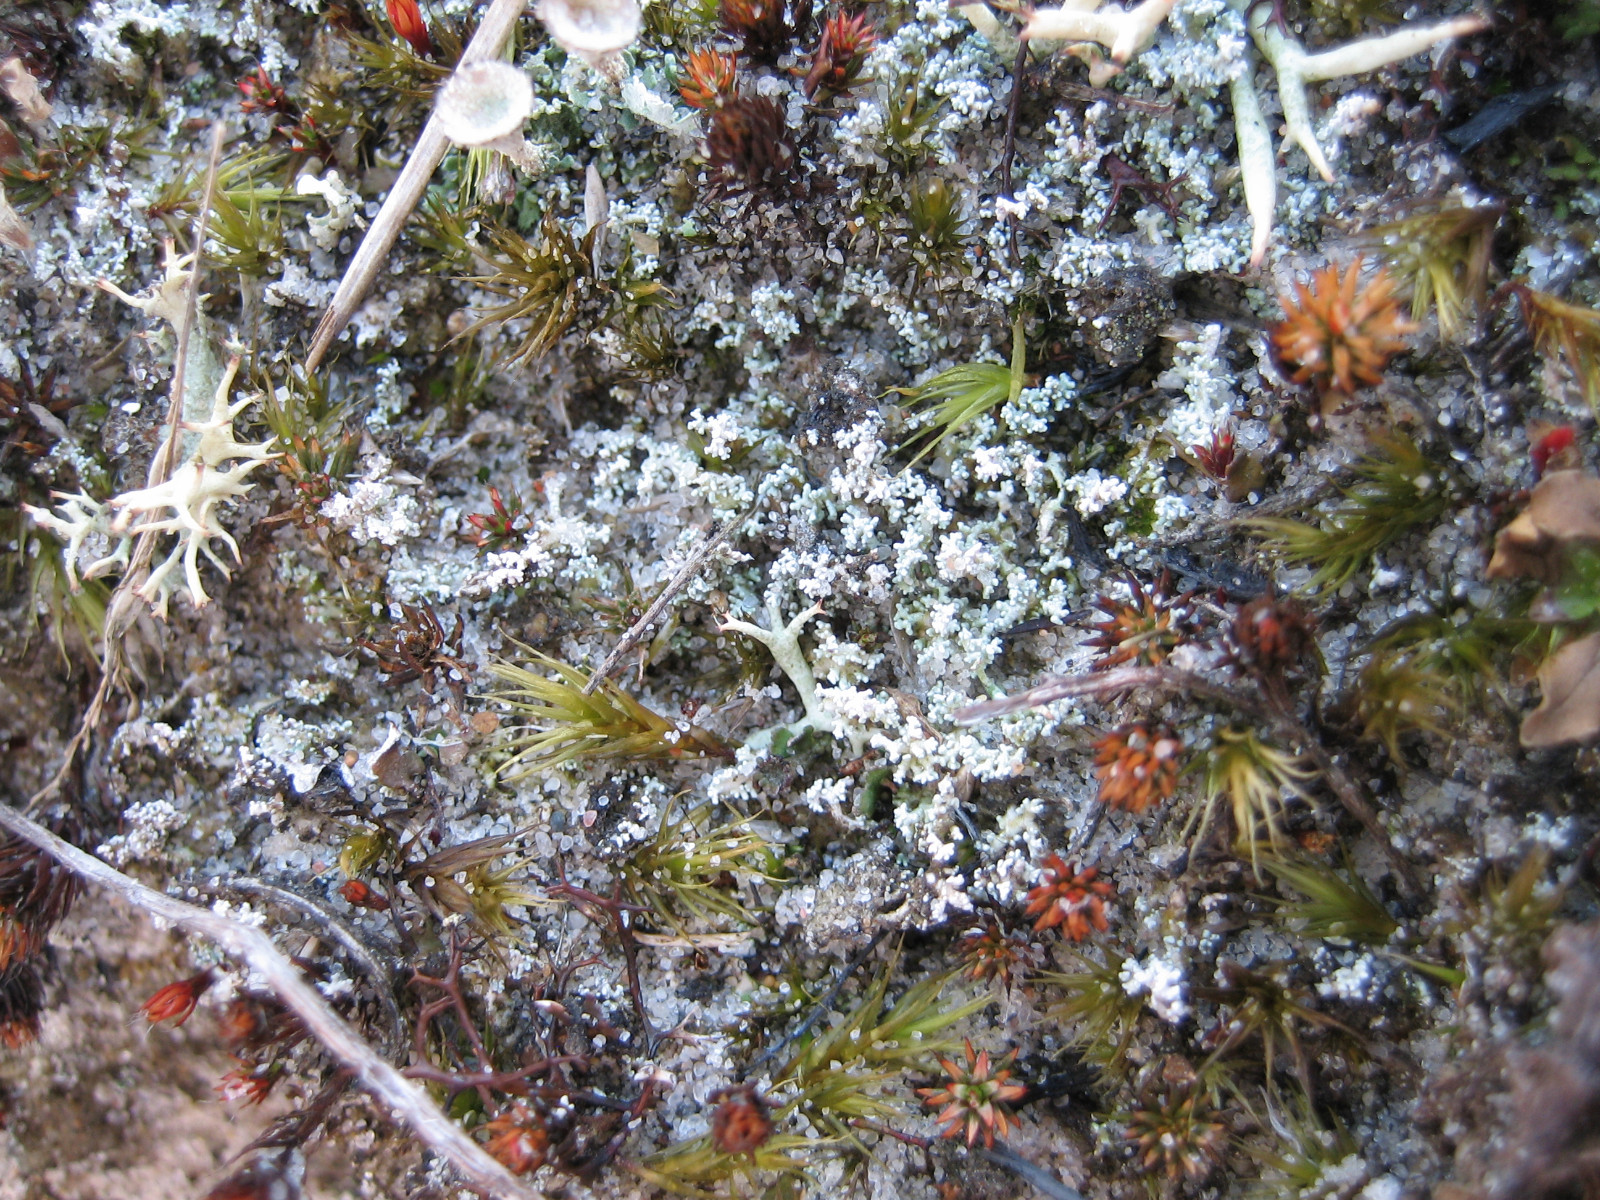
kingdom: Fungi
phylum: Ascomycota
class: Lecanoromycetes
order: Lecanorales
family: Stereocaulaceae
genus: Stereocaulon
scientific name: Stereocaulon condensatum
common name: lav korallav
